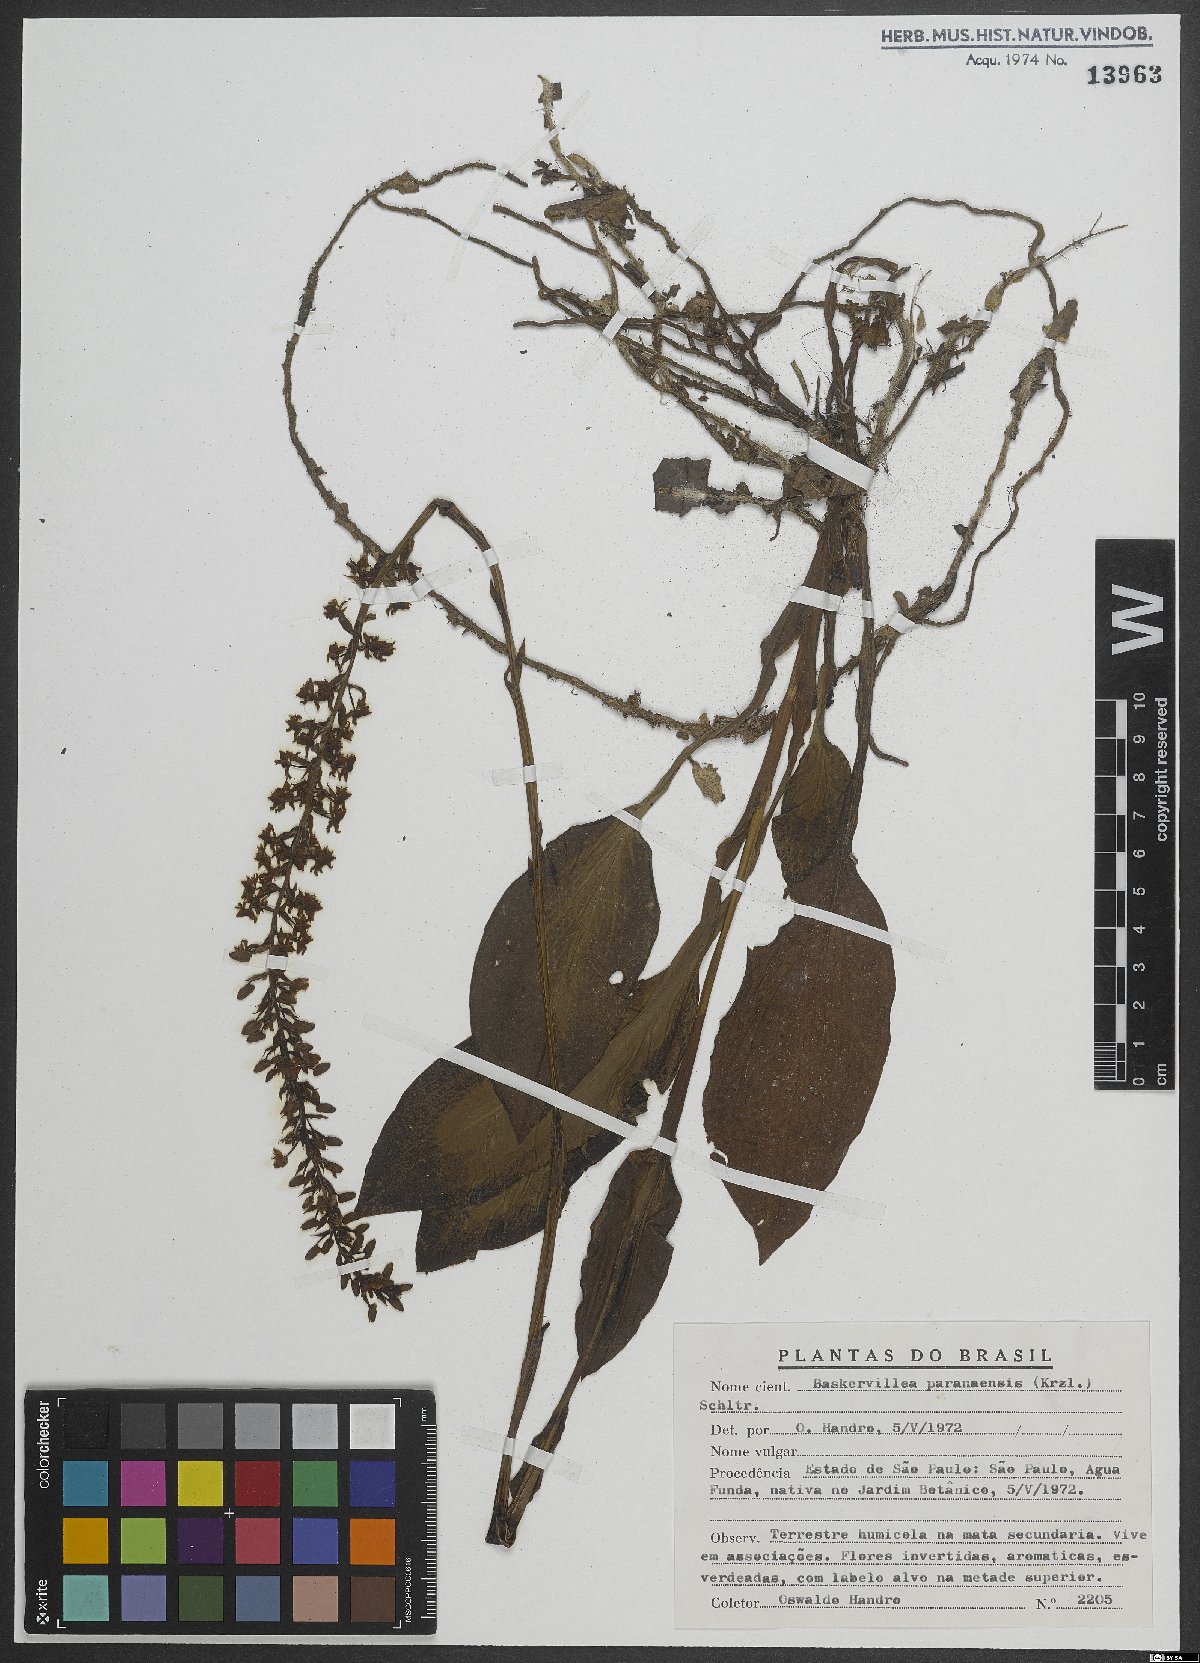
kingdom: Plantae
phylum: Tracheophyta
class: Liliopsida
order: Asparagales
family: Orchidaceae
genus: Baskervilla
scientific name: Baskervilla paranaensis
